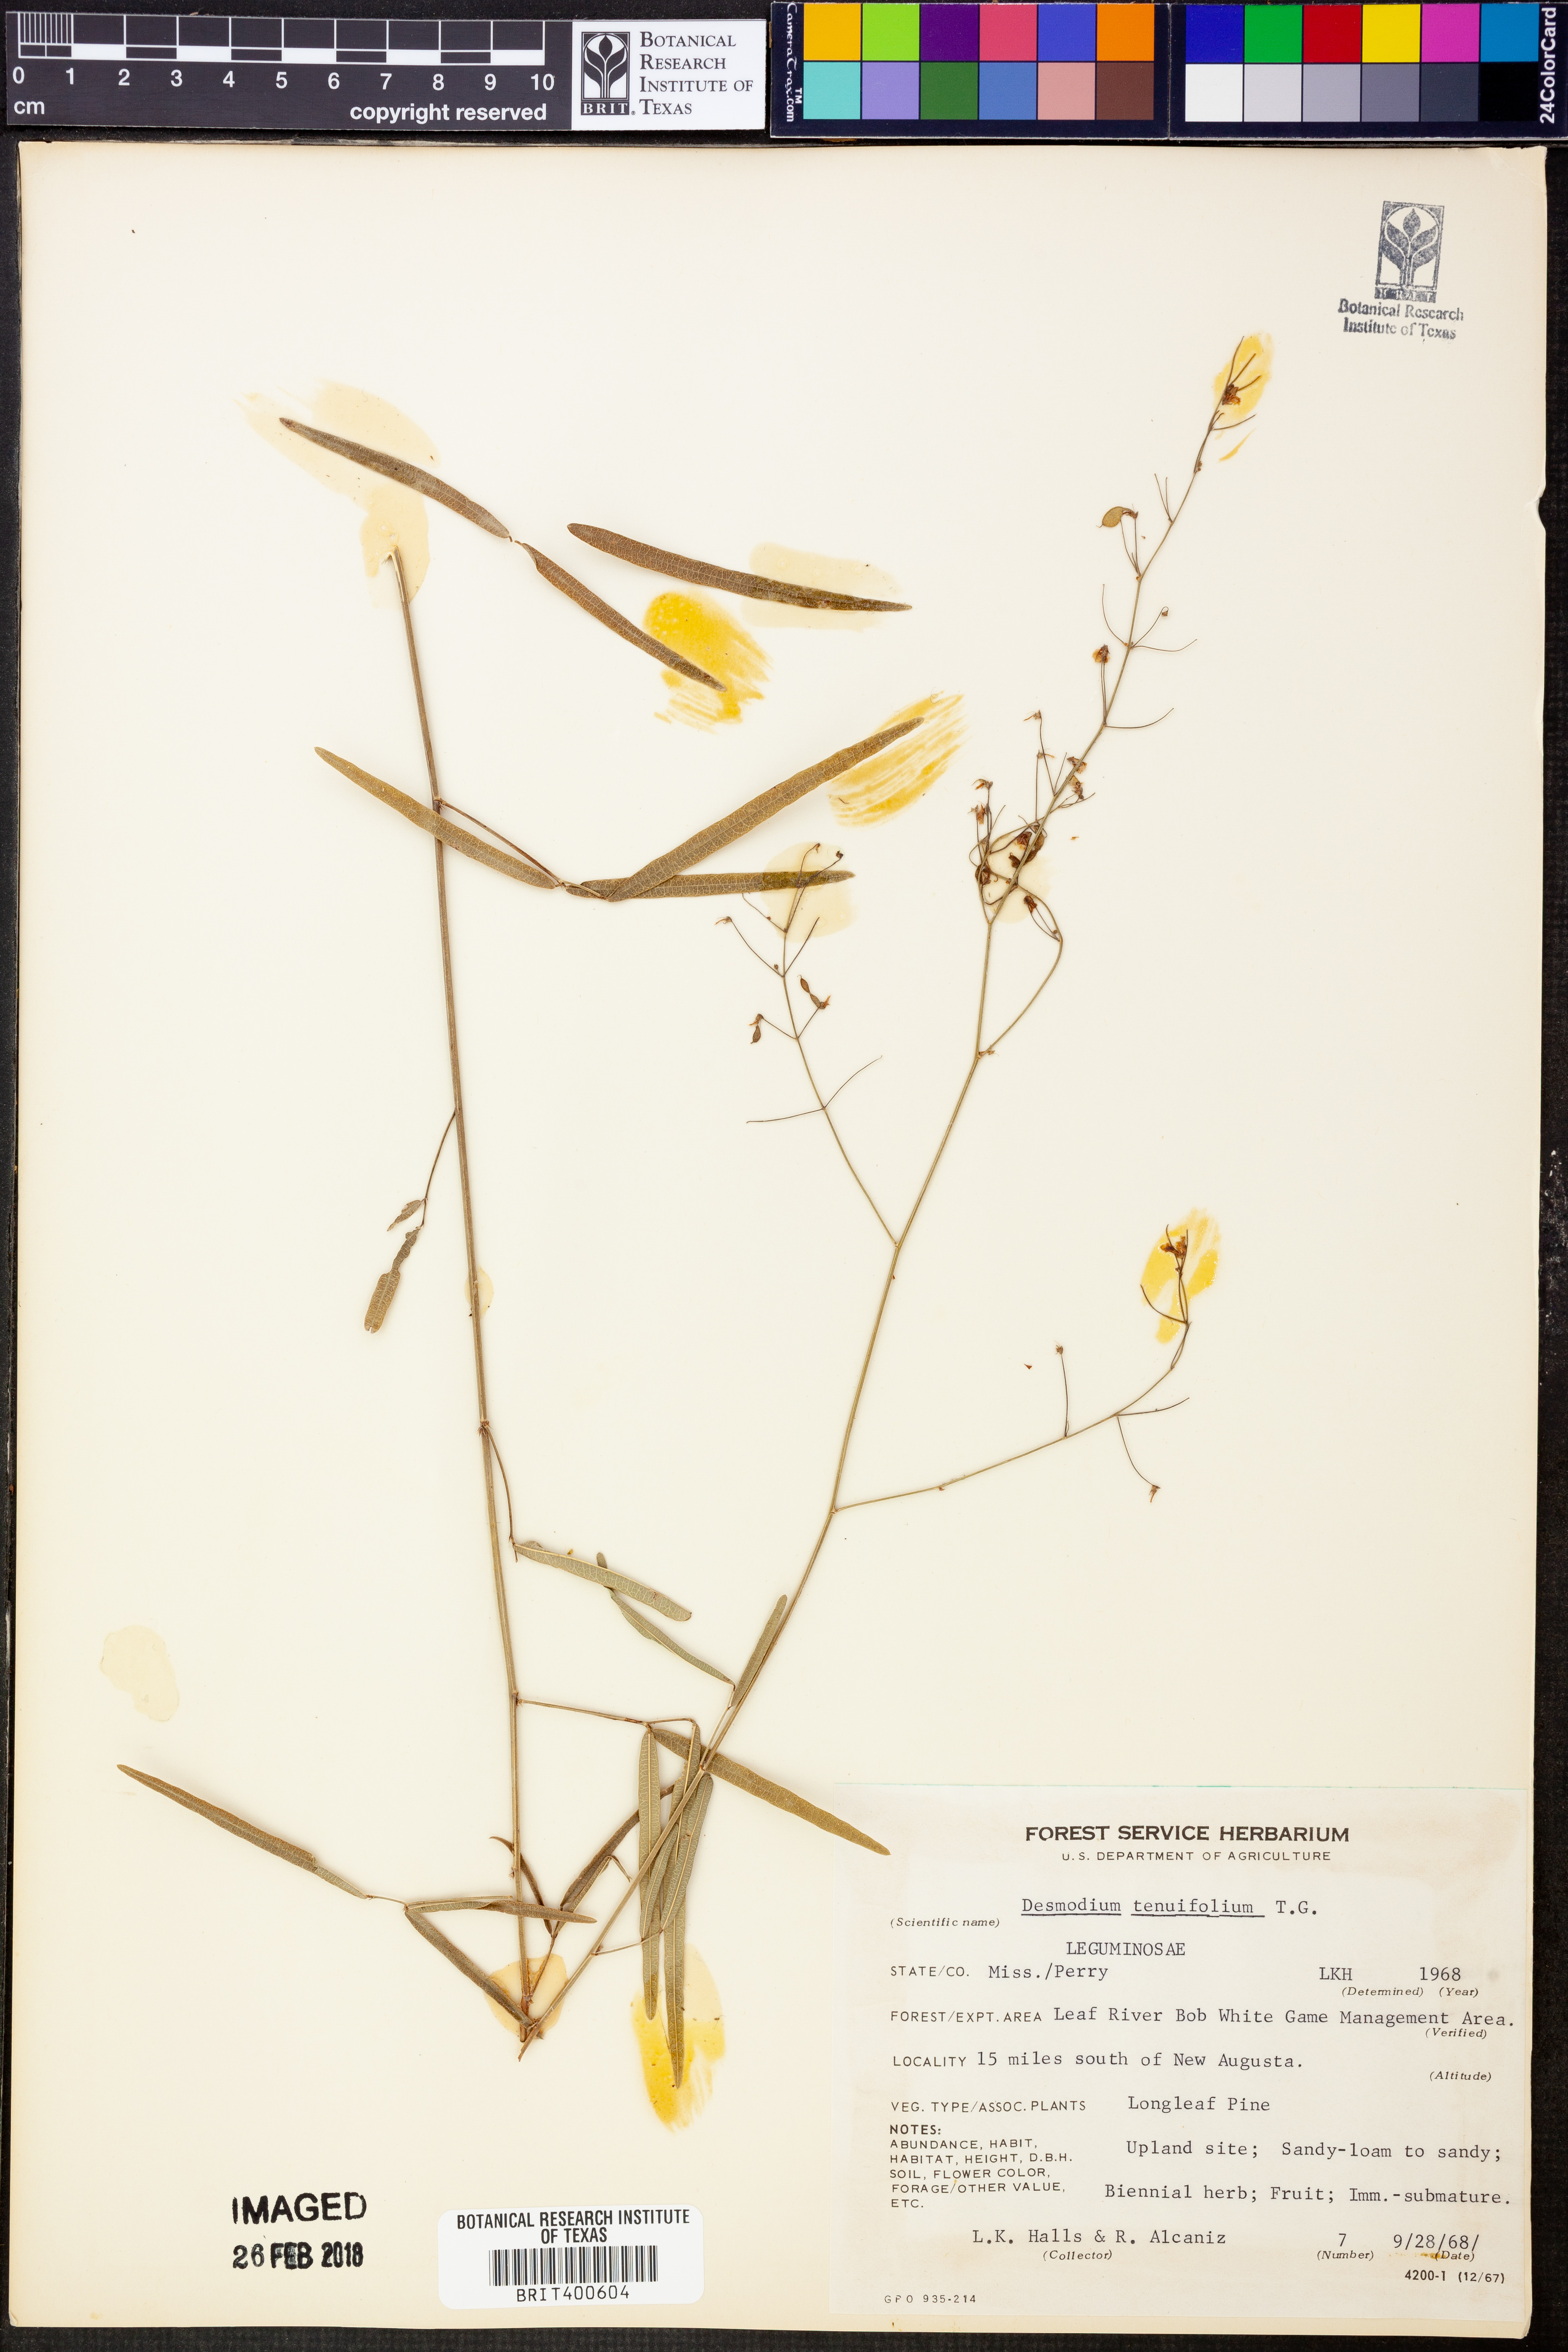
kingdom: Plantae
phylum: Tracheophyta
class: Magnoliopsida
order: Fabales
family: Fabaceae
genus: Desmodium
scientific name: Desmodium tenuifolium
